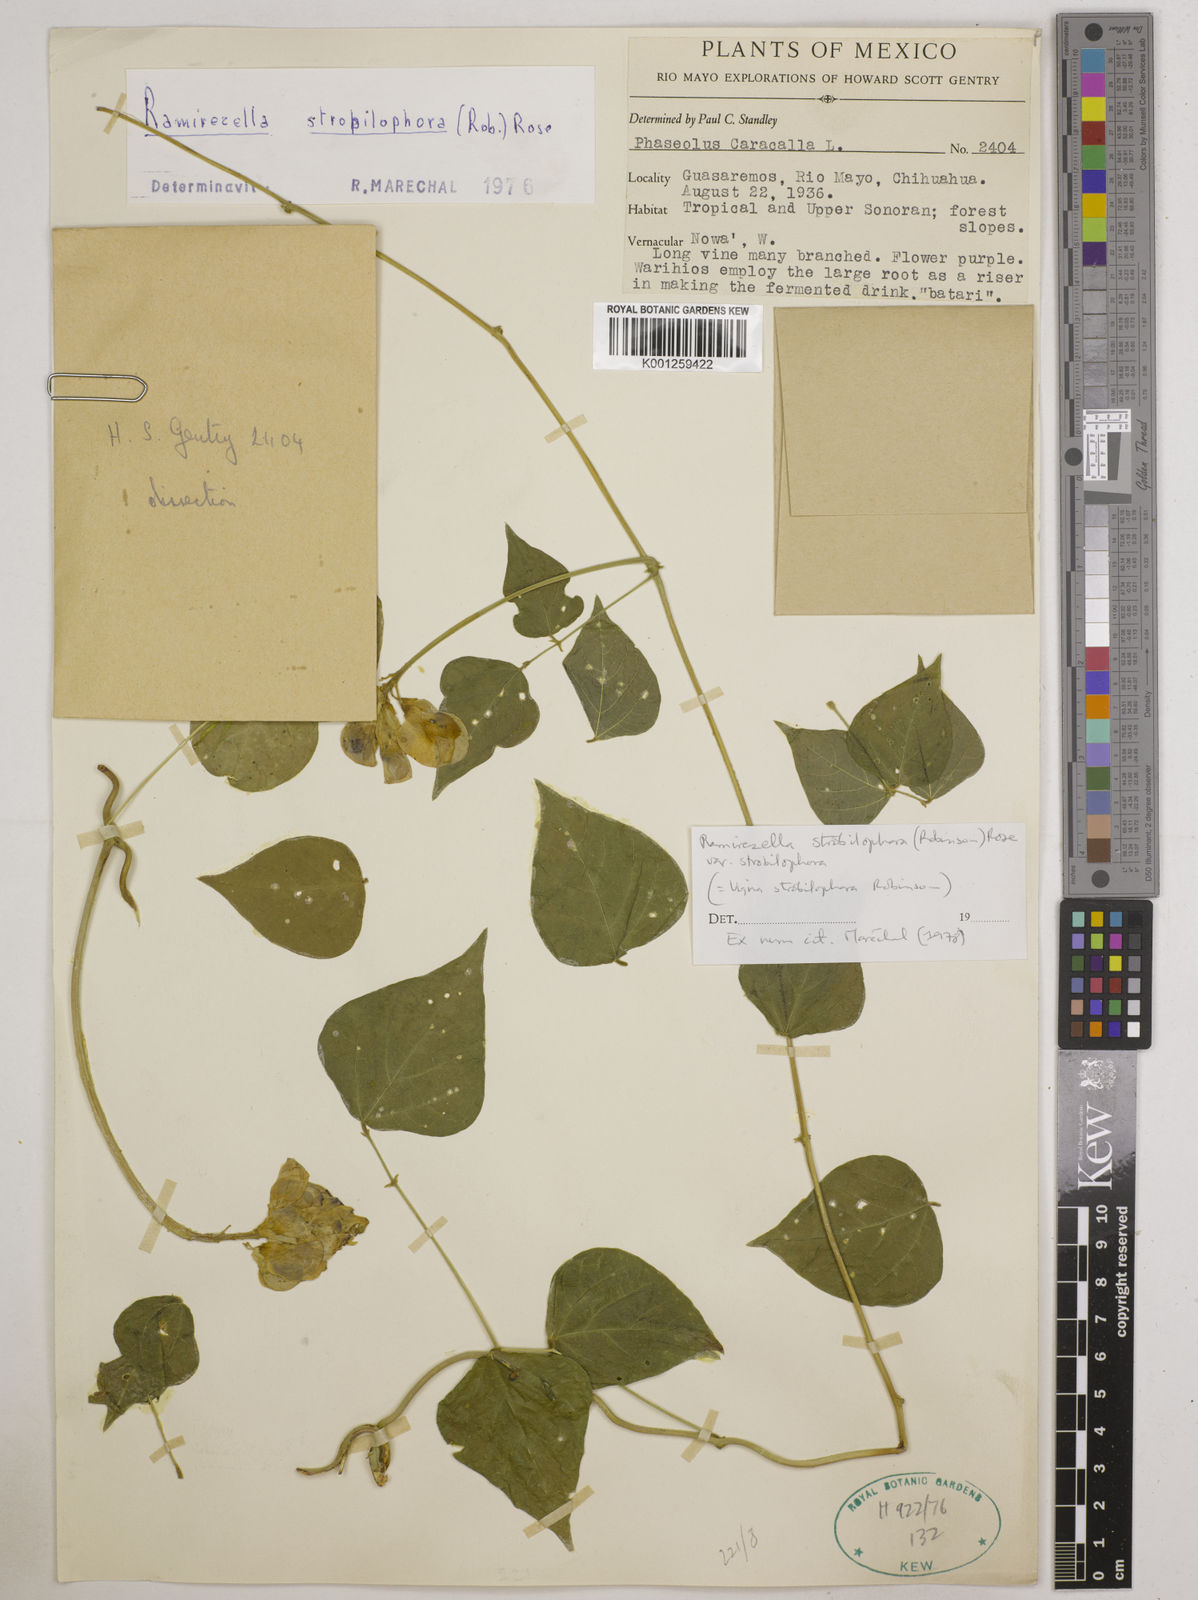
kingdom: Plantae
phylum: Tracheophyta
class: Magnoliopsida
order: Fabales
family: Fabaceae
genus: Ramirezella
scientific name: Ramirezella strobilophora
